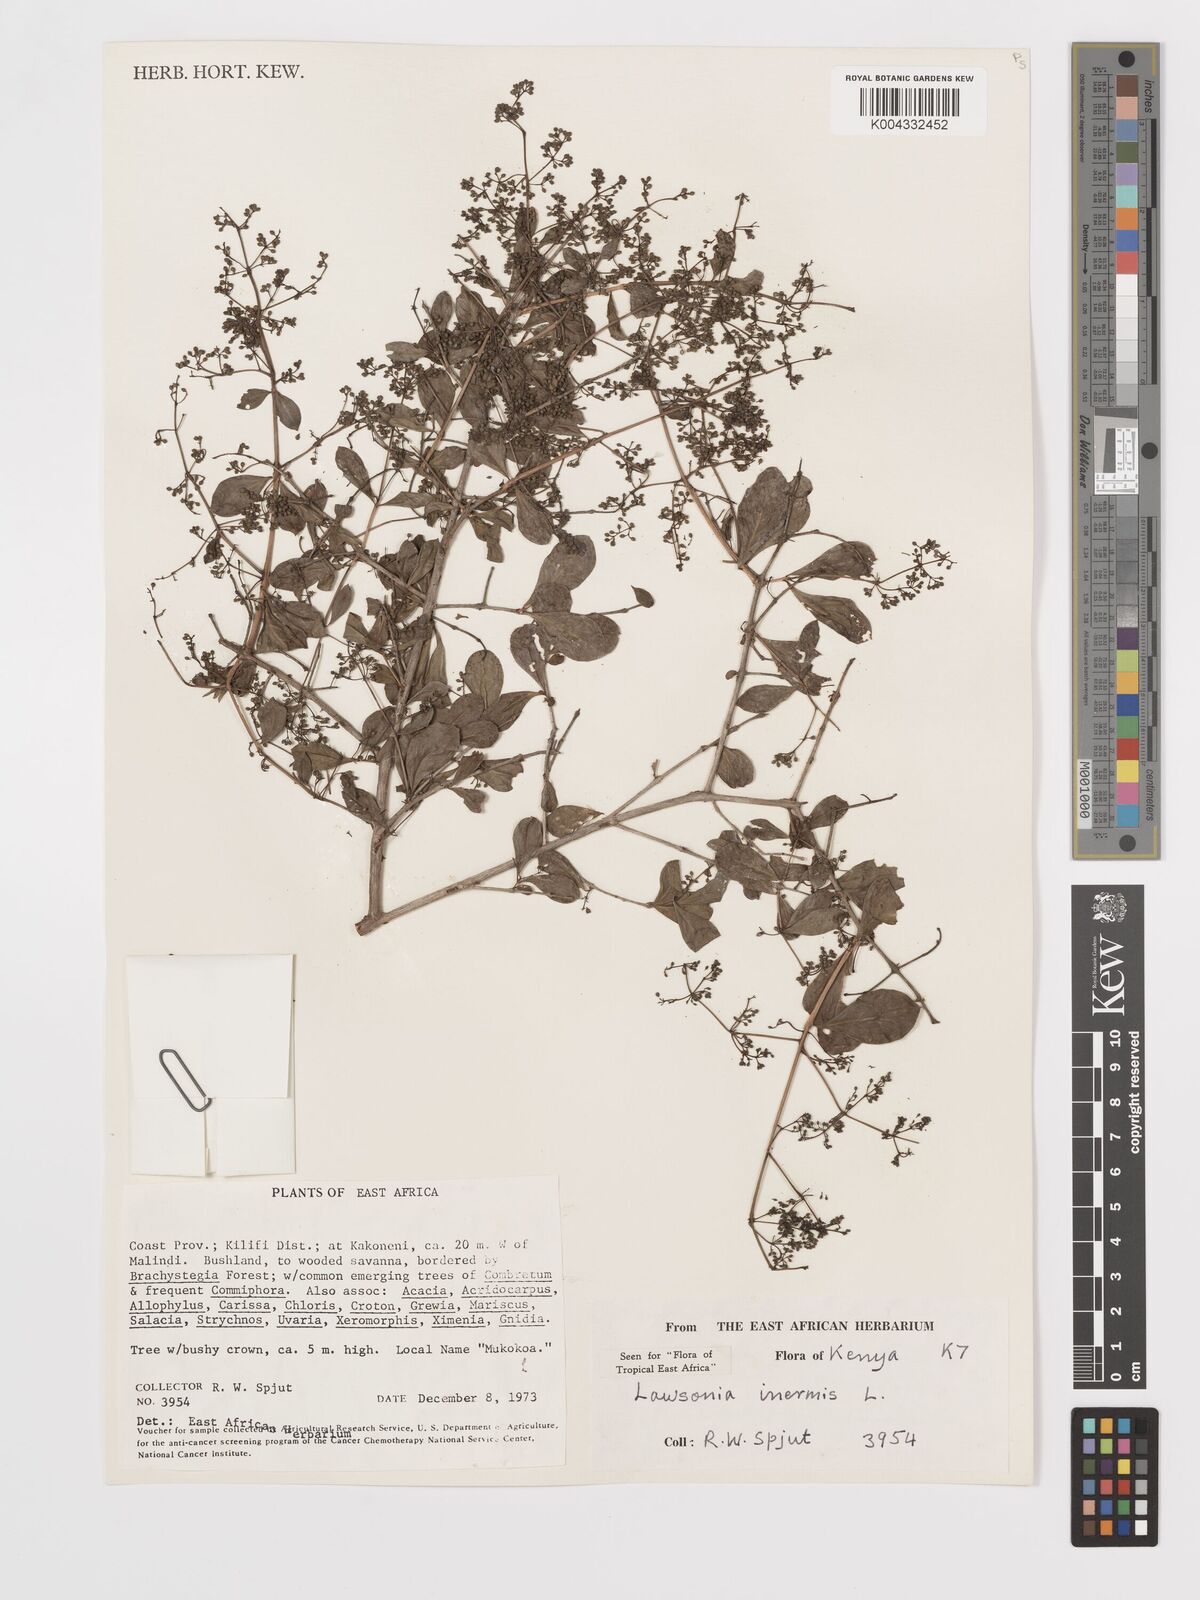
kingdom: Plantae
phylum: Tracheophyta
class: Magnoliopsida
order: Myrtales
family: Lythraceae
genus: Lawsonia
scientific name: Lawsonia inermis
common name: Henna
